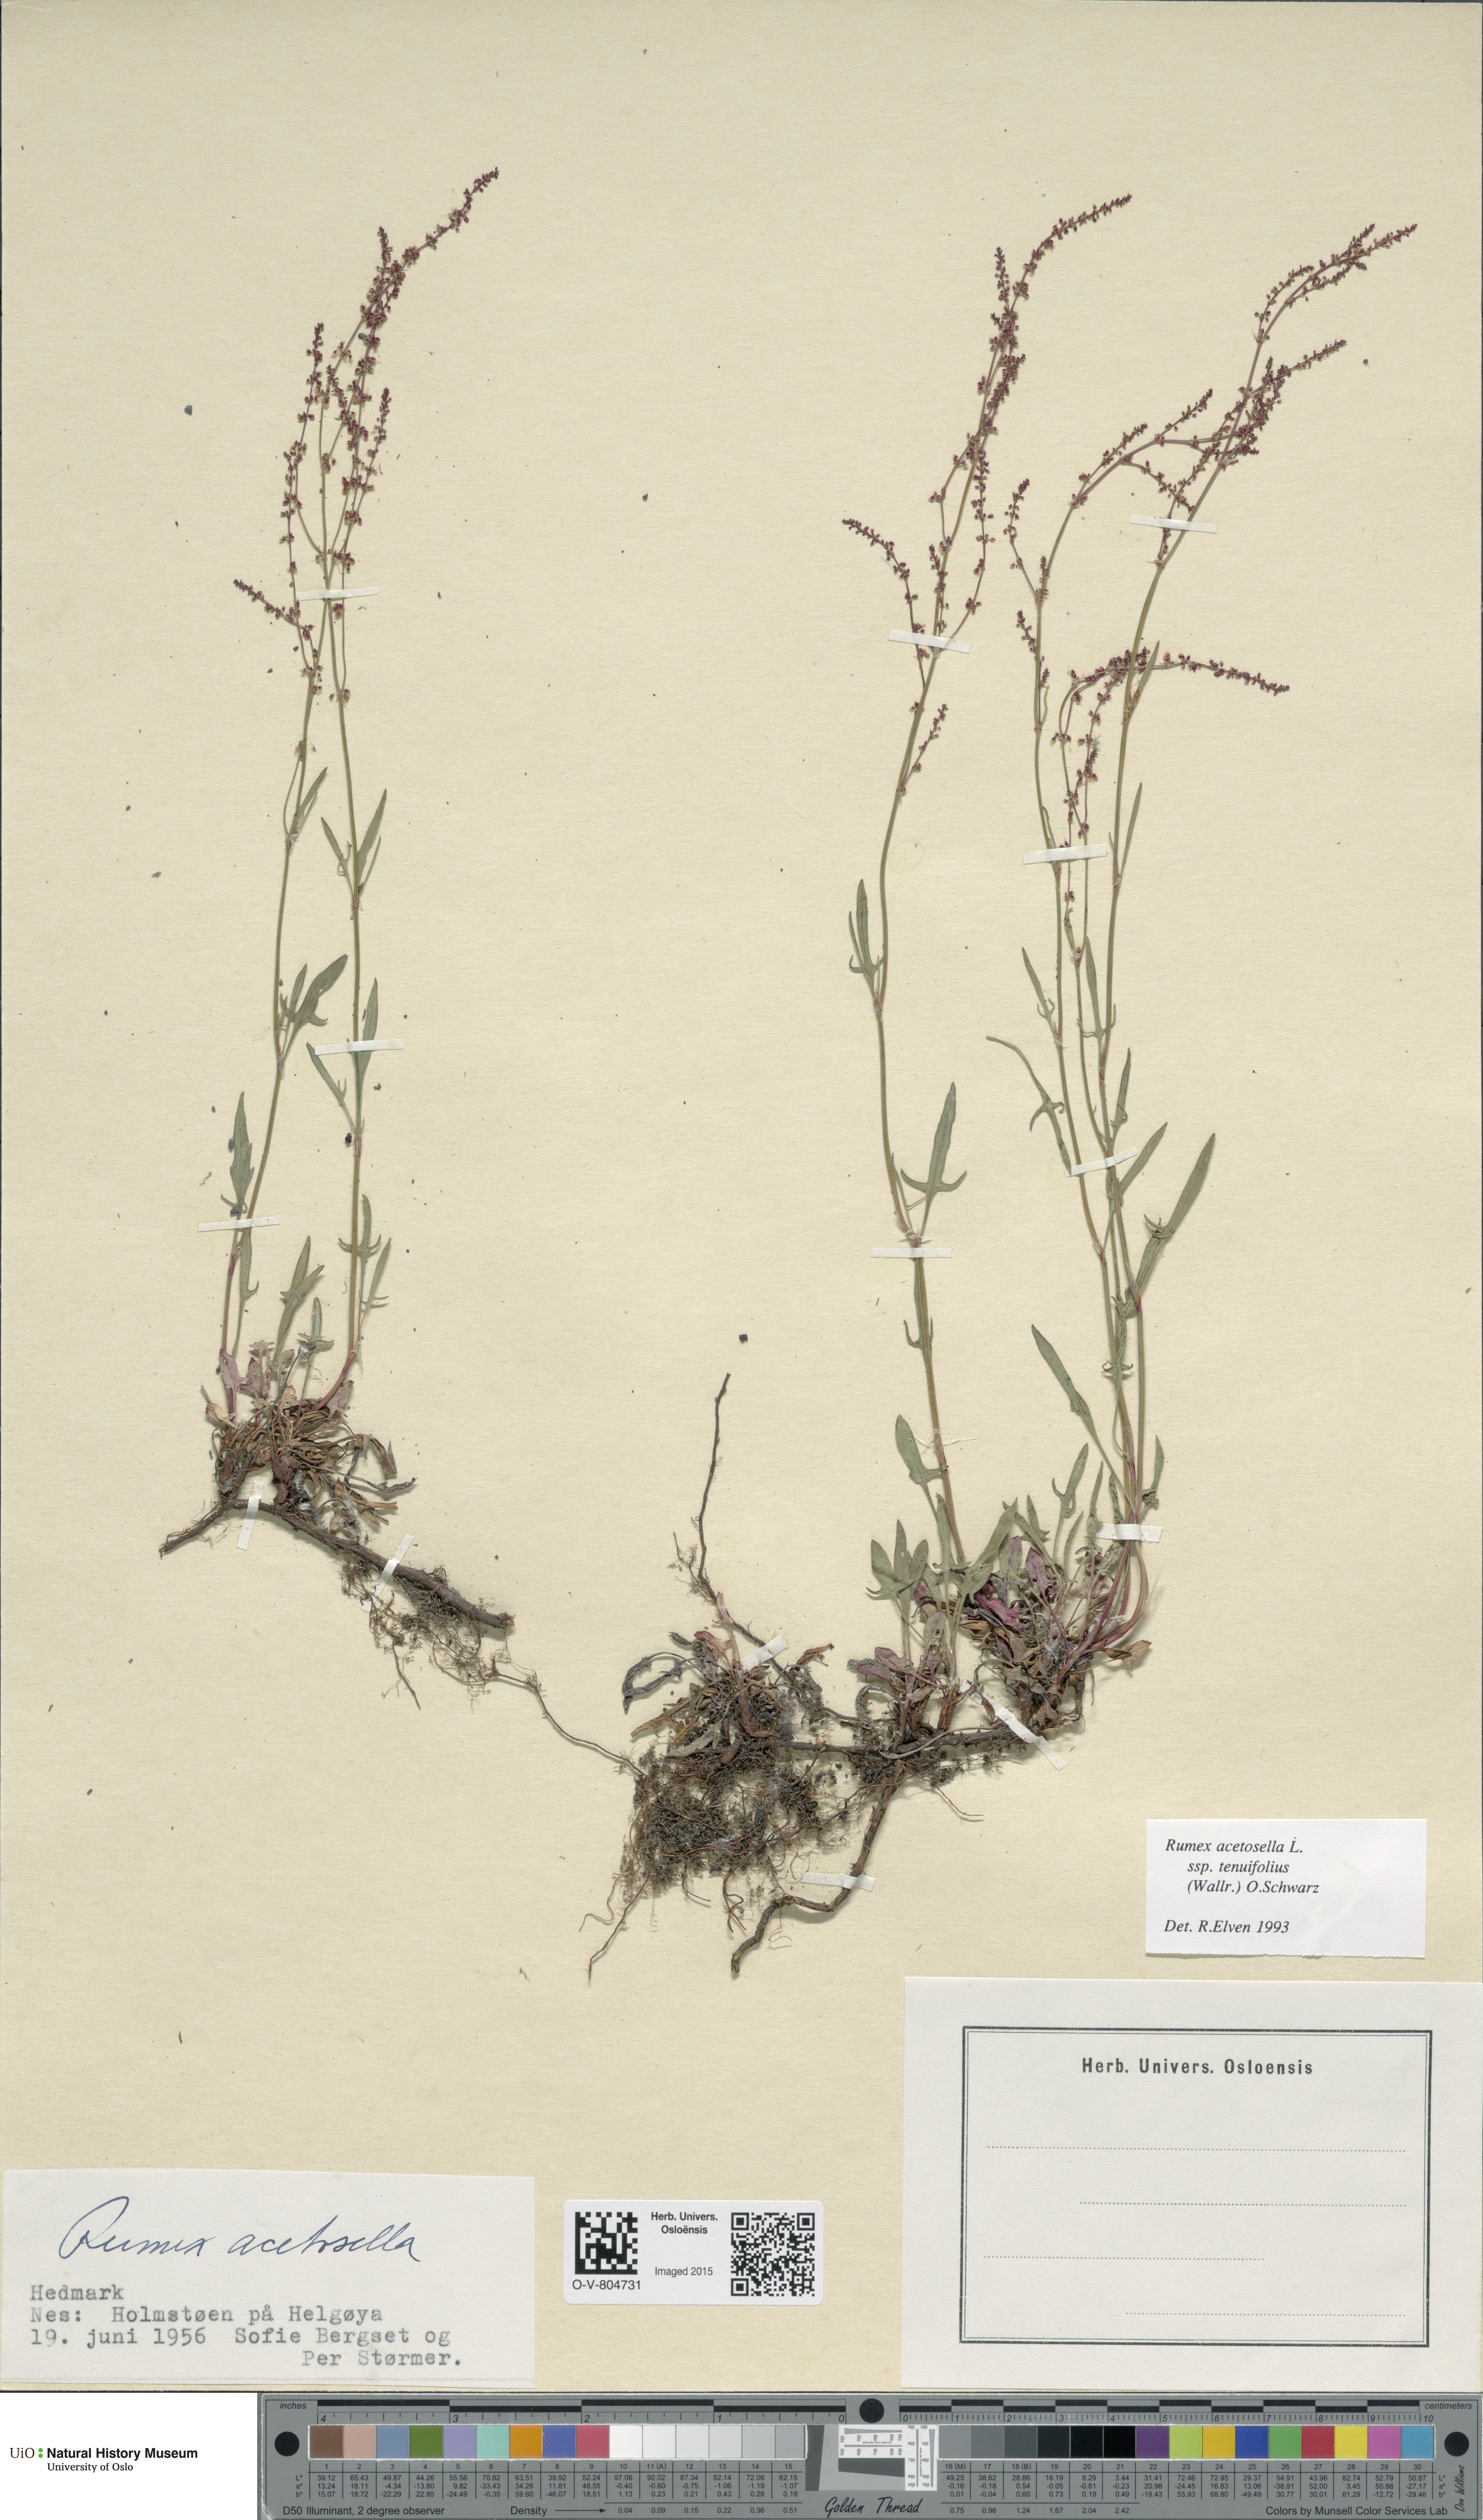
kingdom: Plantae
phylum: Tracheophyta
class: Magnoliopsida
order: Caryophyllales
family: Polygonaceae
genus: Rumex
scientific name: Rumex acetosella
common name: Common sheep sorrel
